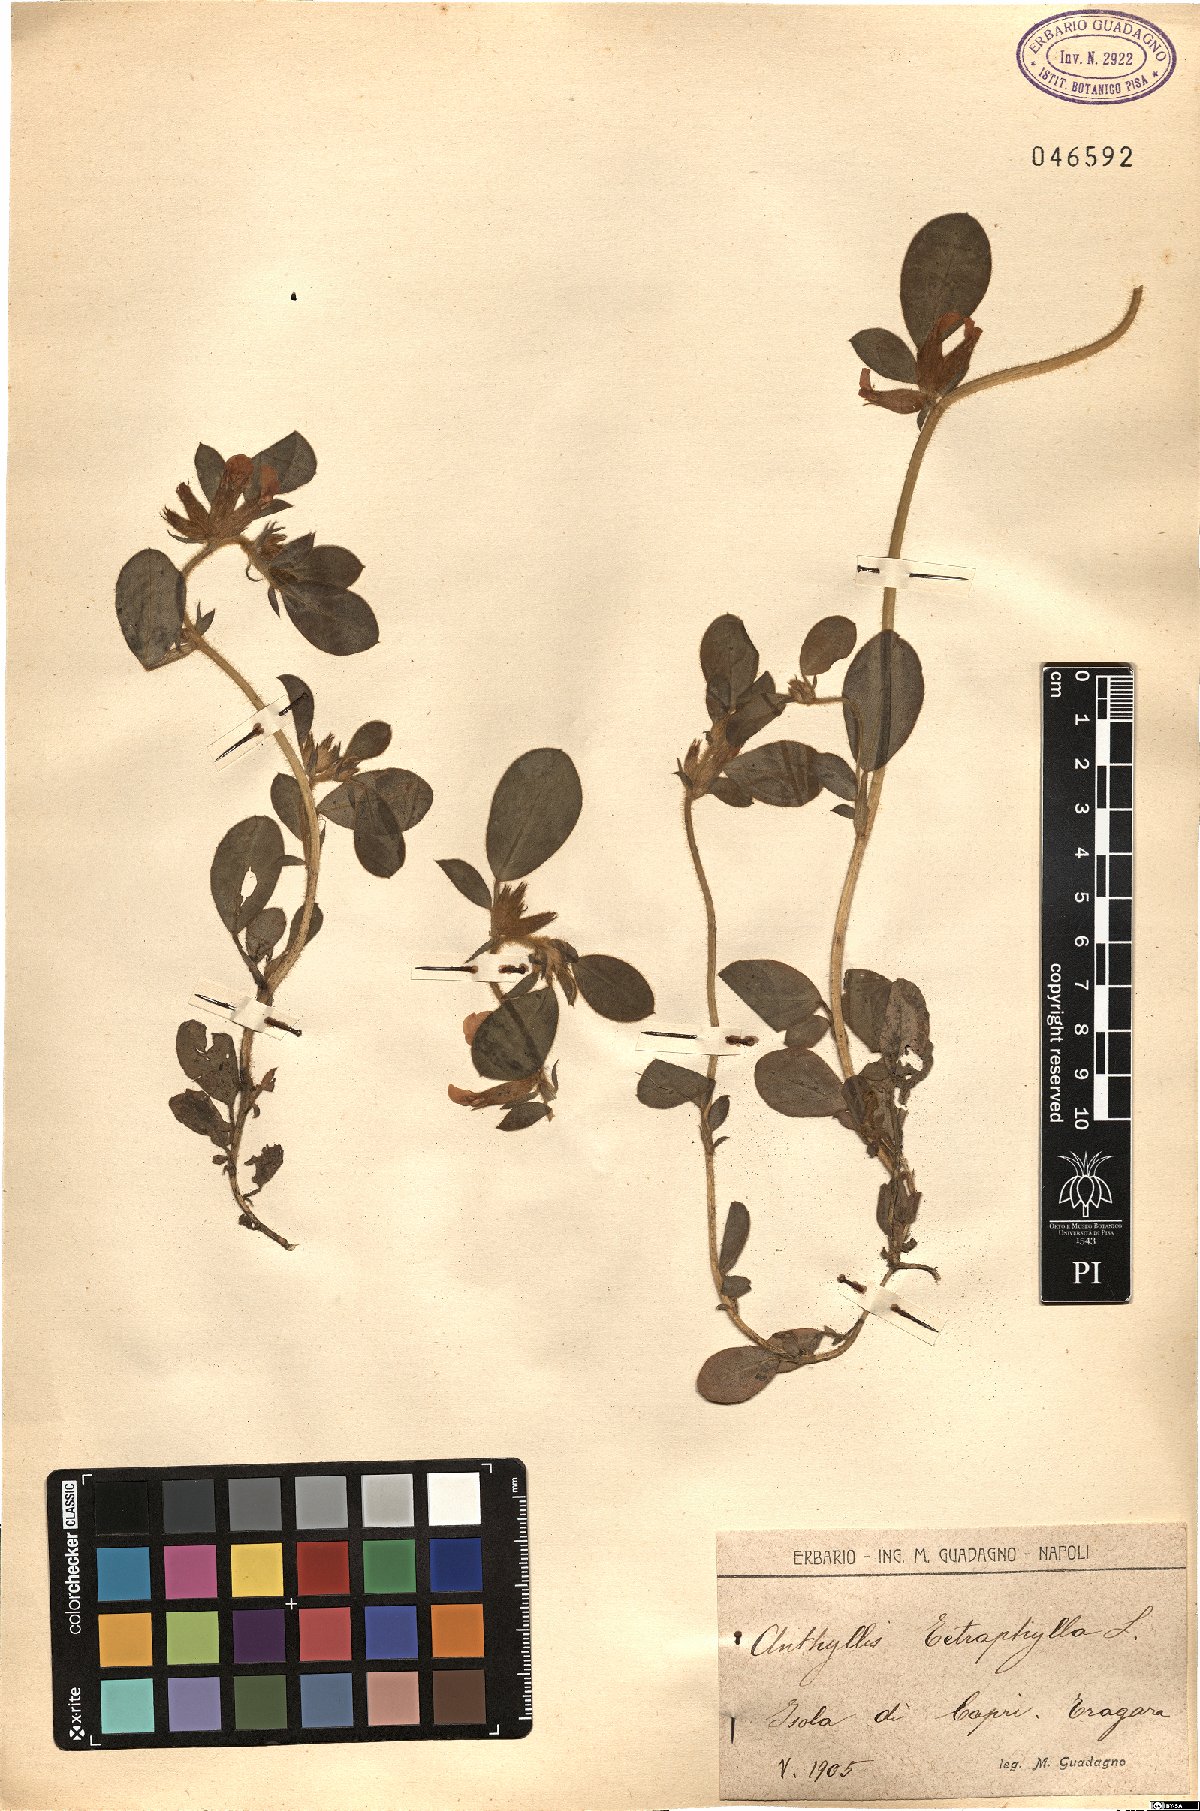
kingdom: Plantae
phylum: Tracheophyta
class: Magnoliopsida
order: Fabales
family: Fabaceae
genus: Tripodion
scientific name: Tripodion tetraphyllum
